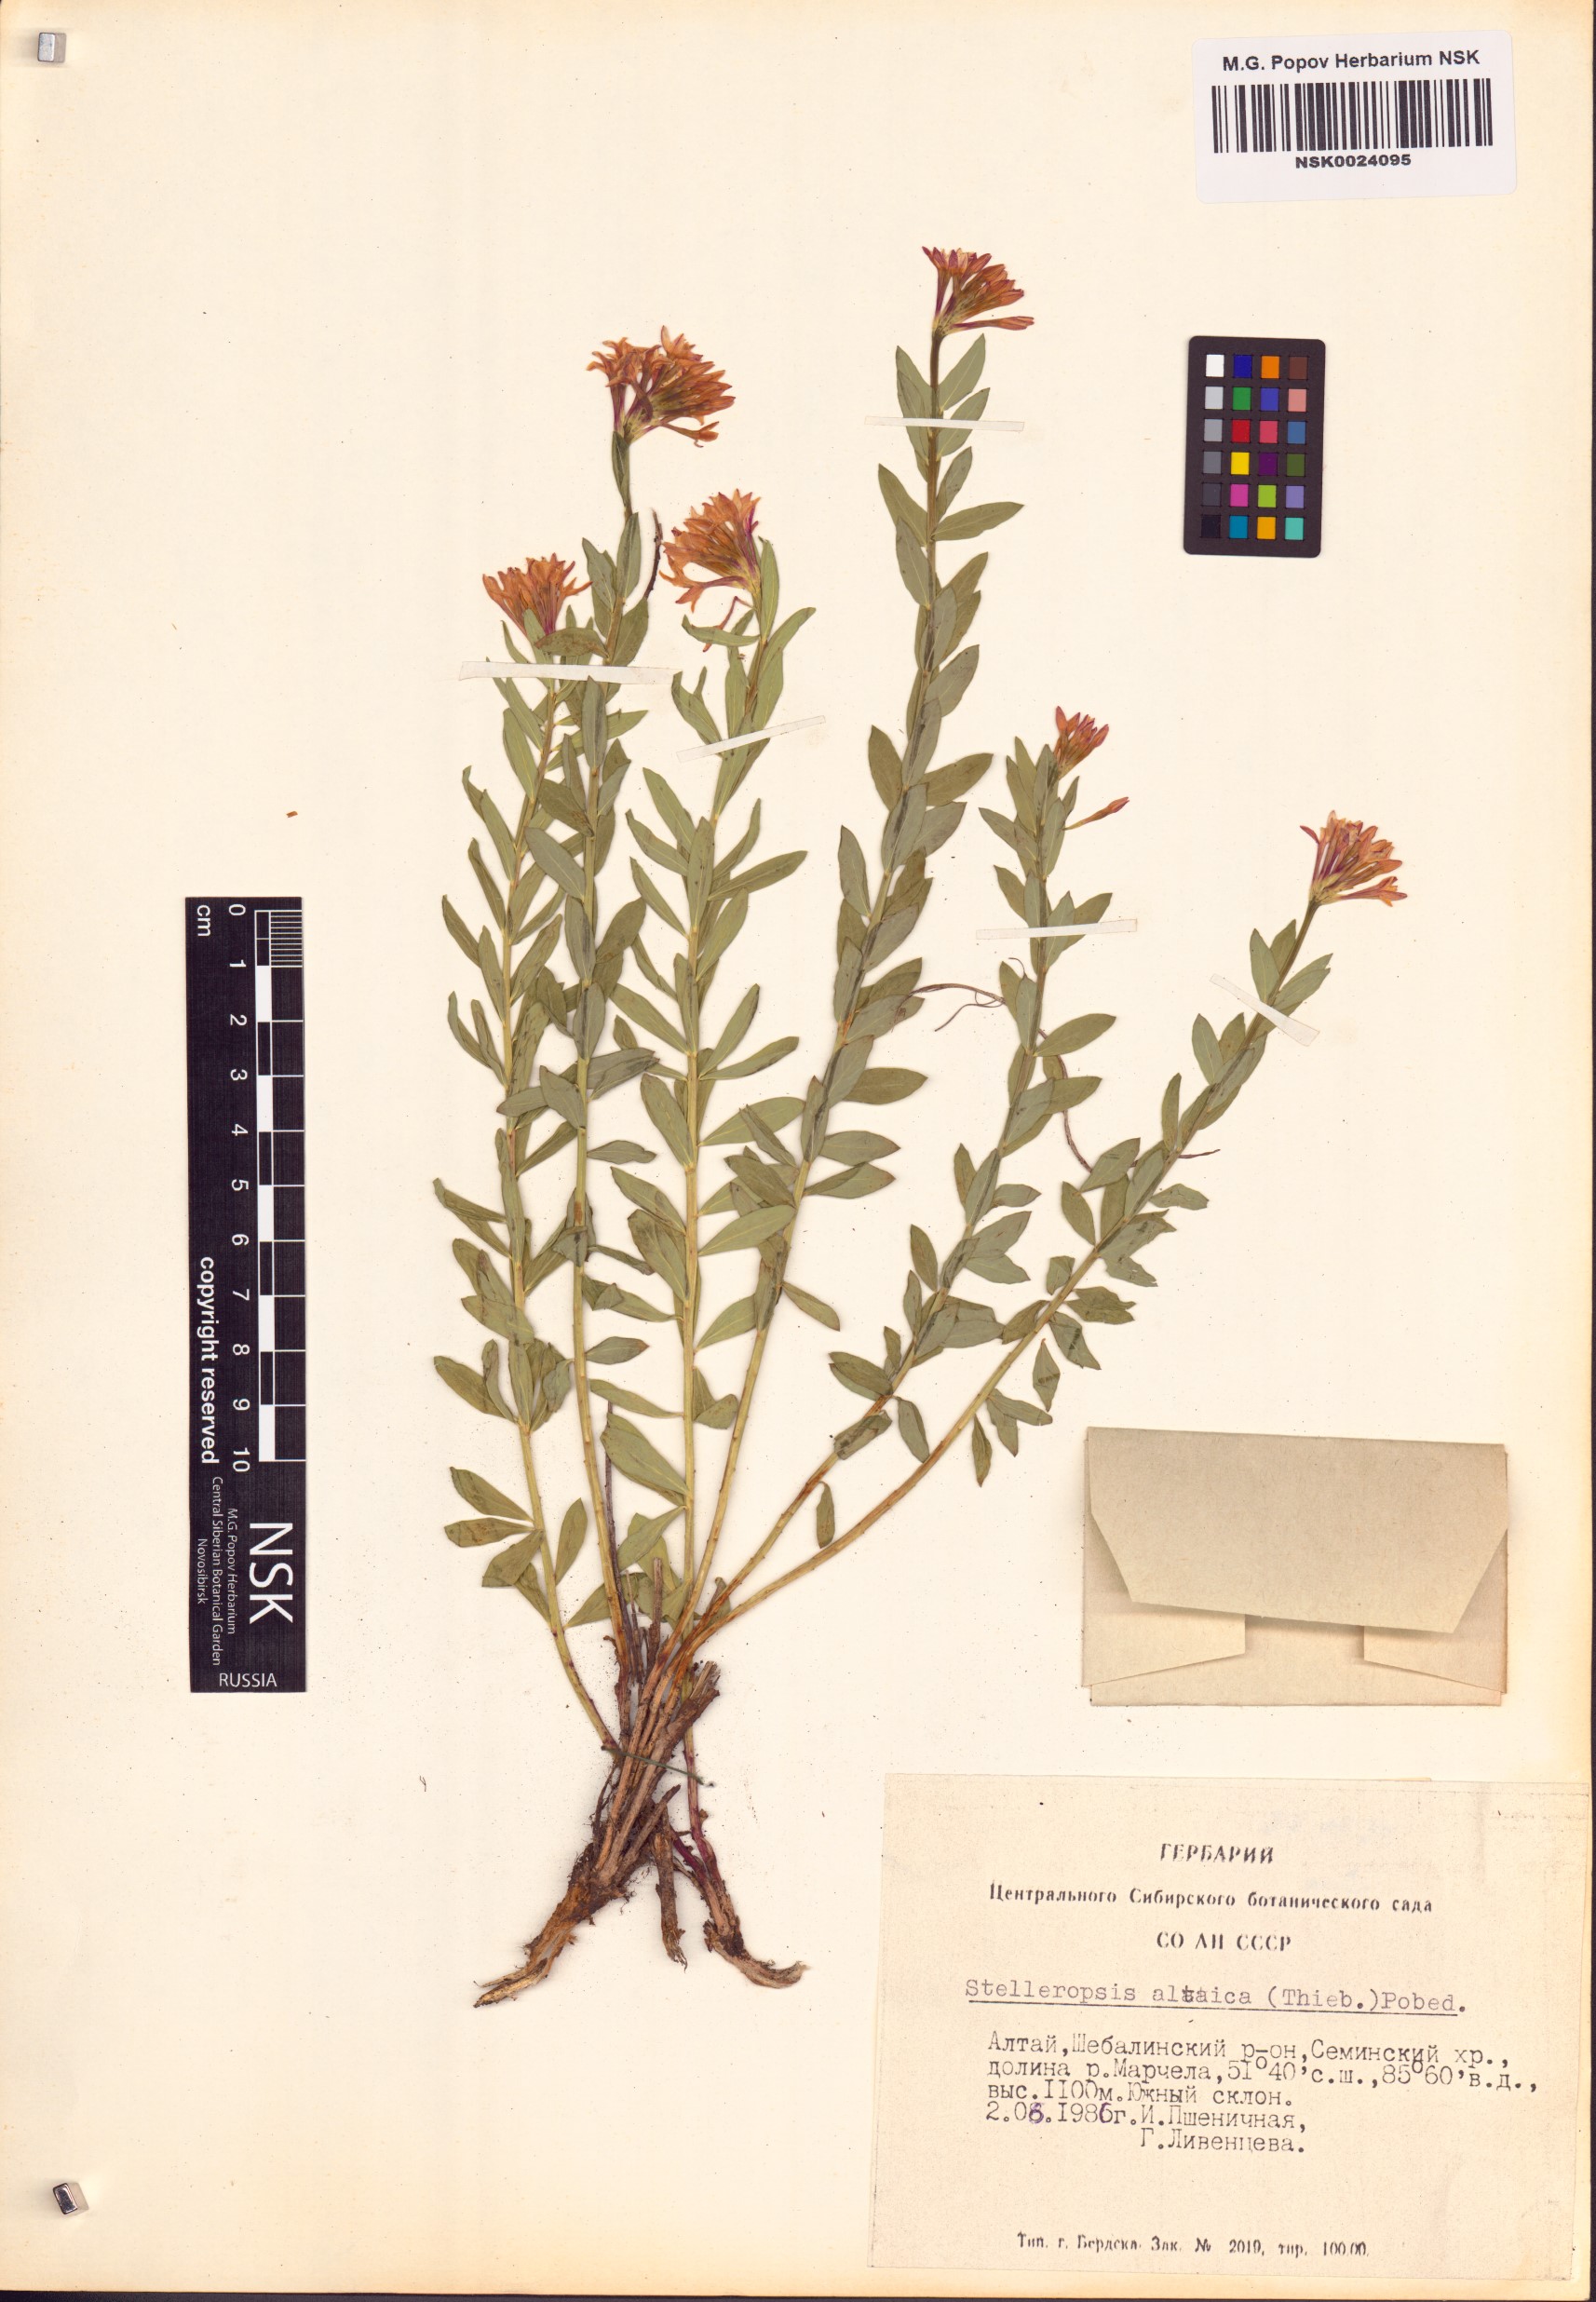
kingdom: Plantae
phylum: Tracheophyta
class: Magnoliopsida
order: Malvales
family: Thymelaeaceae
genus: Diarthron
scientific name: Diarthron altaicum
